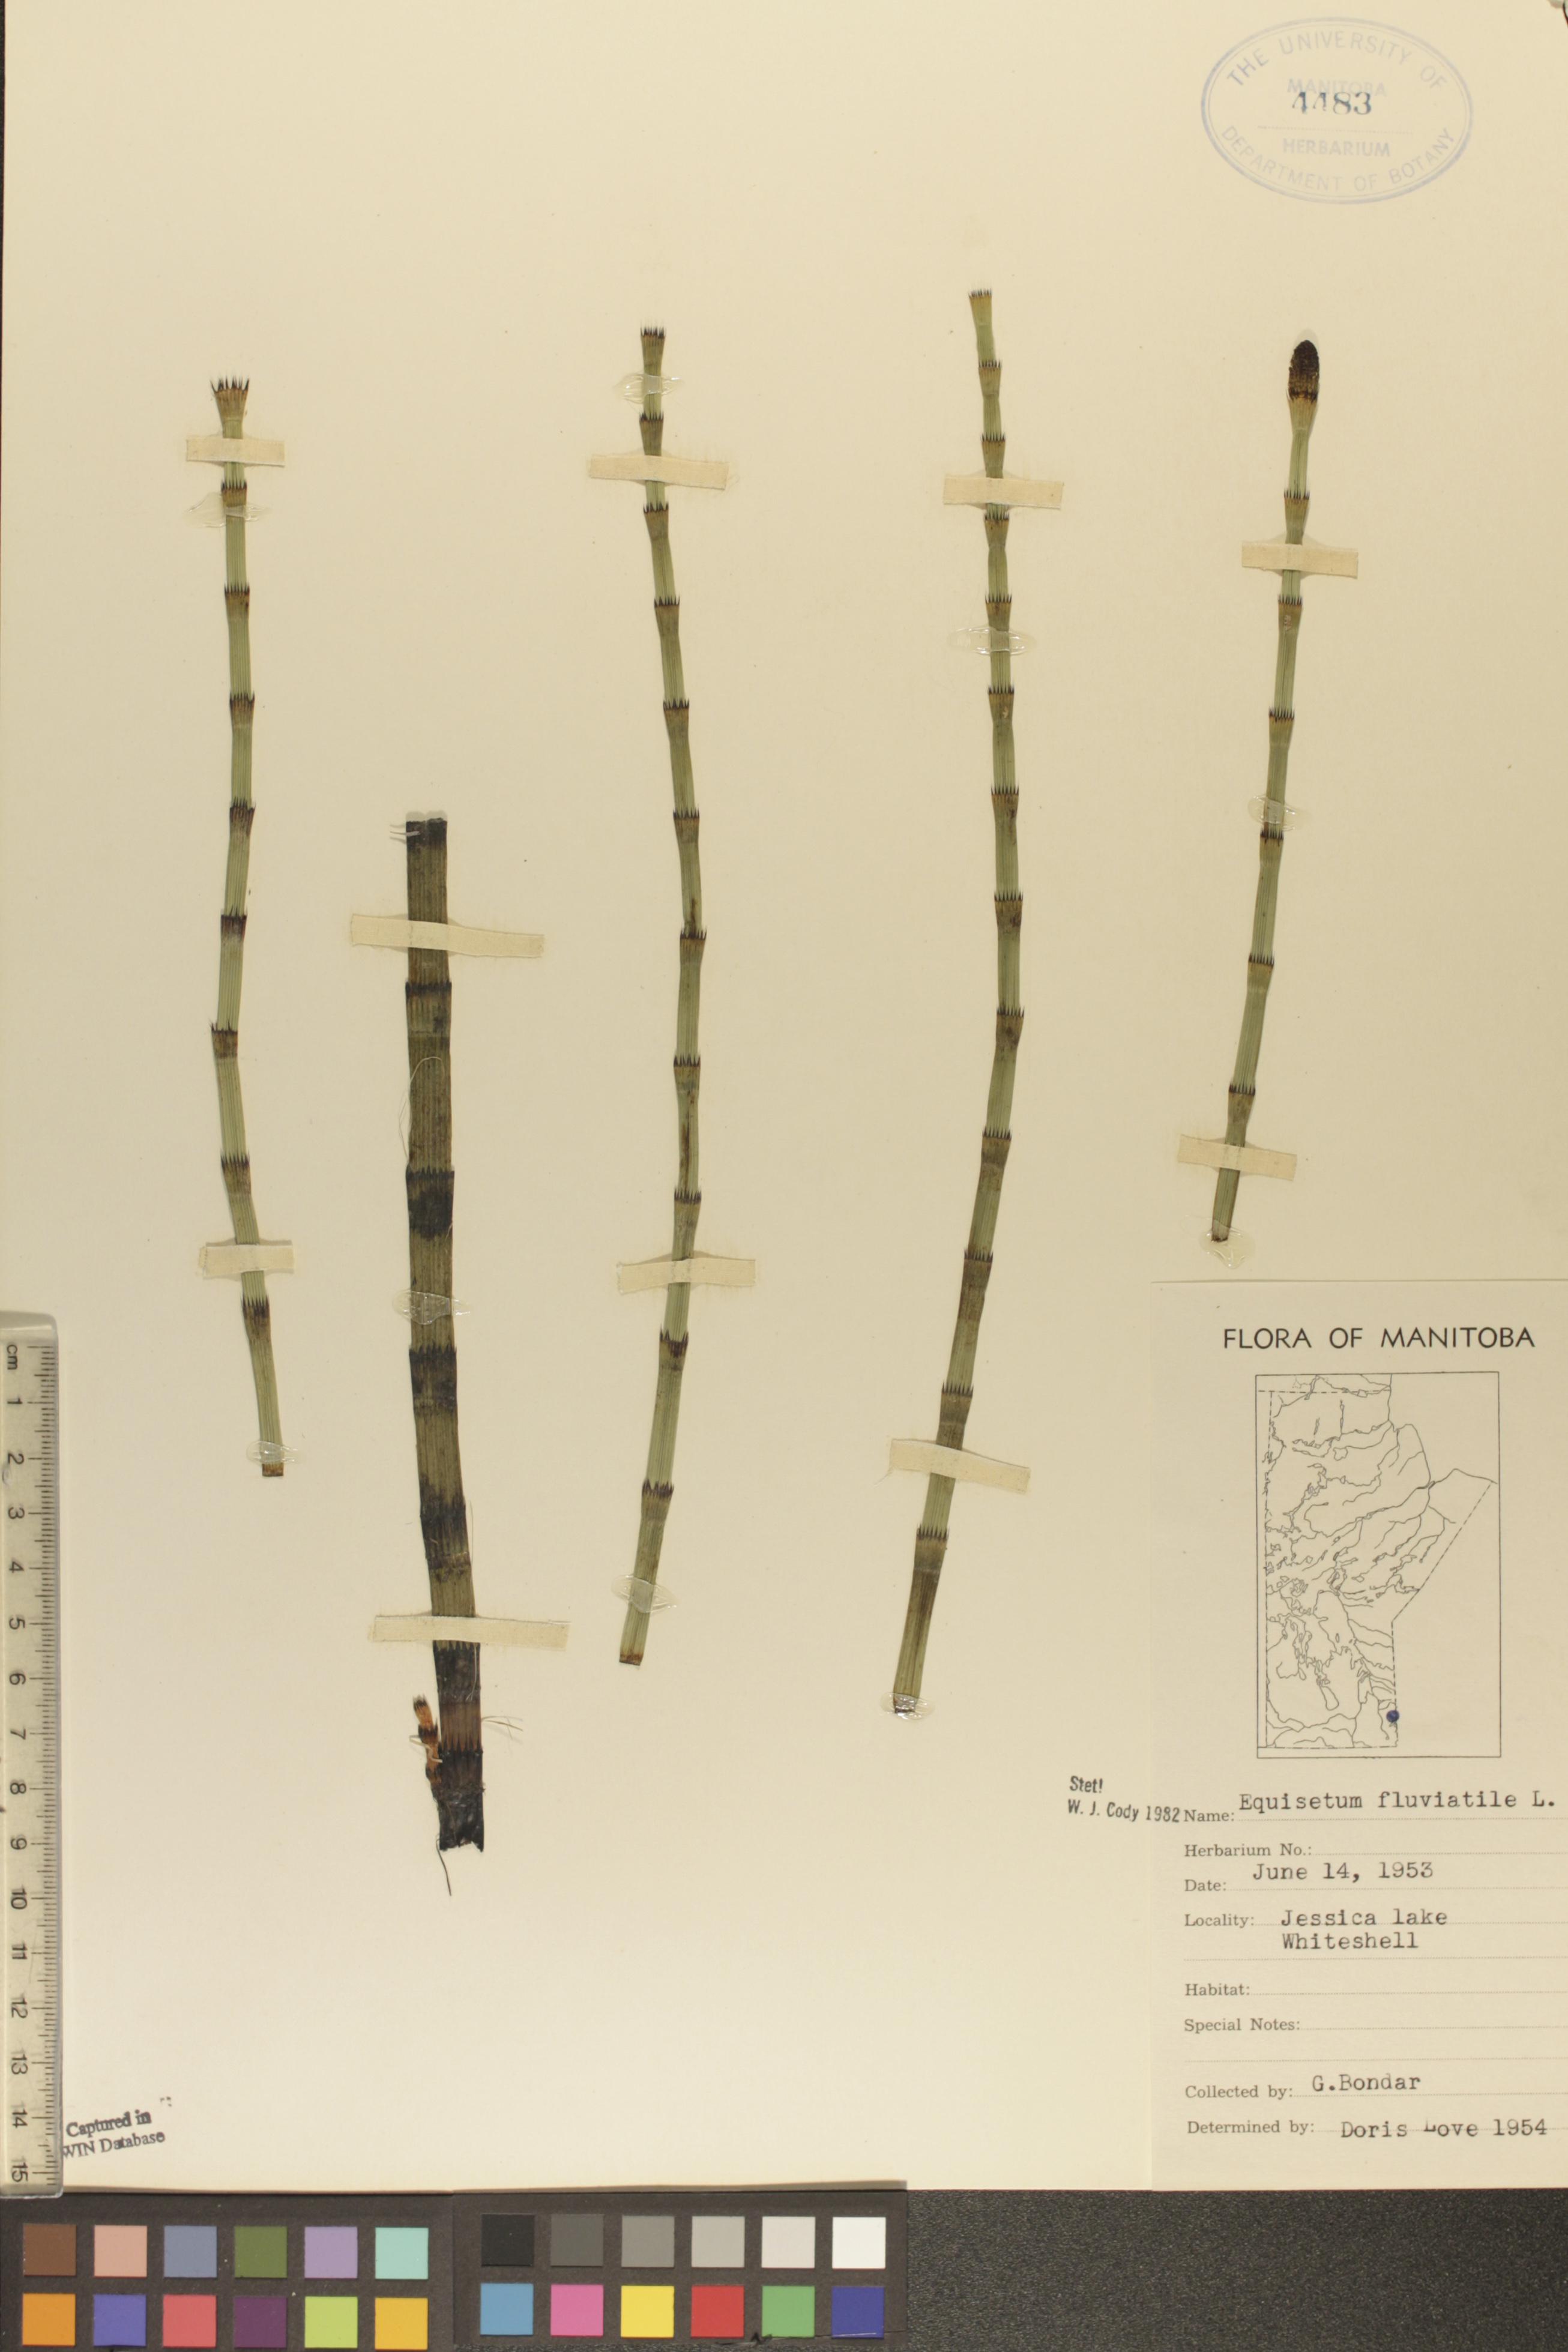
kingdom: Plantae
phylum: Tracheophyta
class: Polypodiopsida
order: Equisetales
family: Equisetaceae
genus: Equisetum
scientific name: Equisetum fluviatile
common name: Water horsetail
